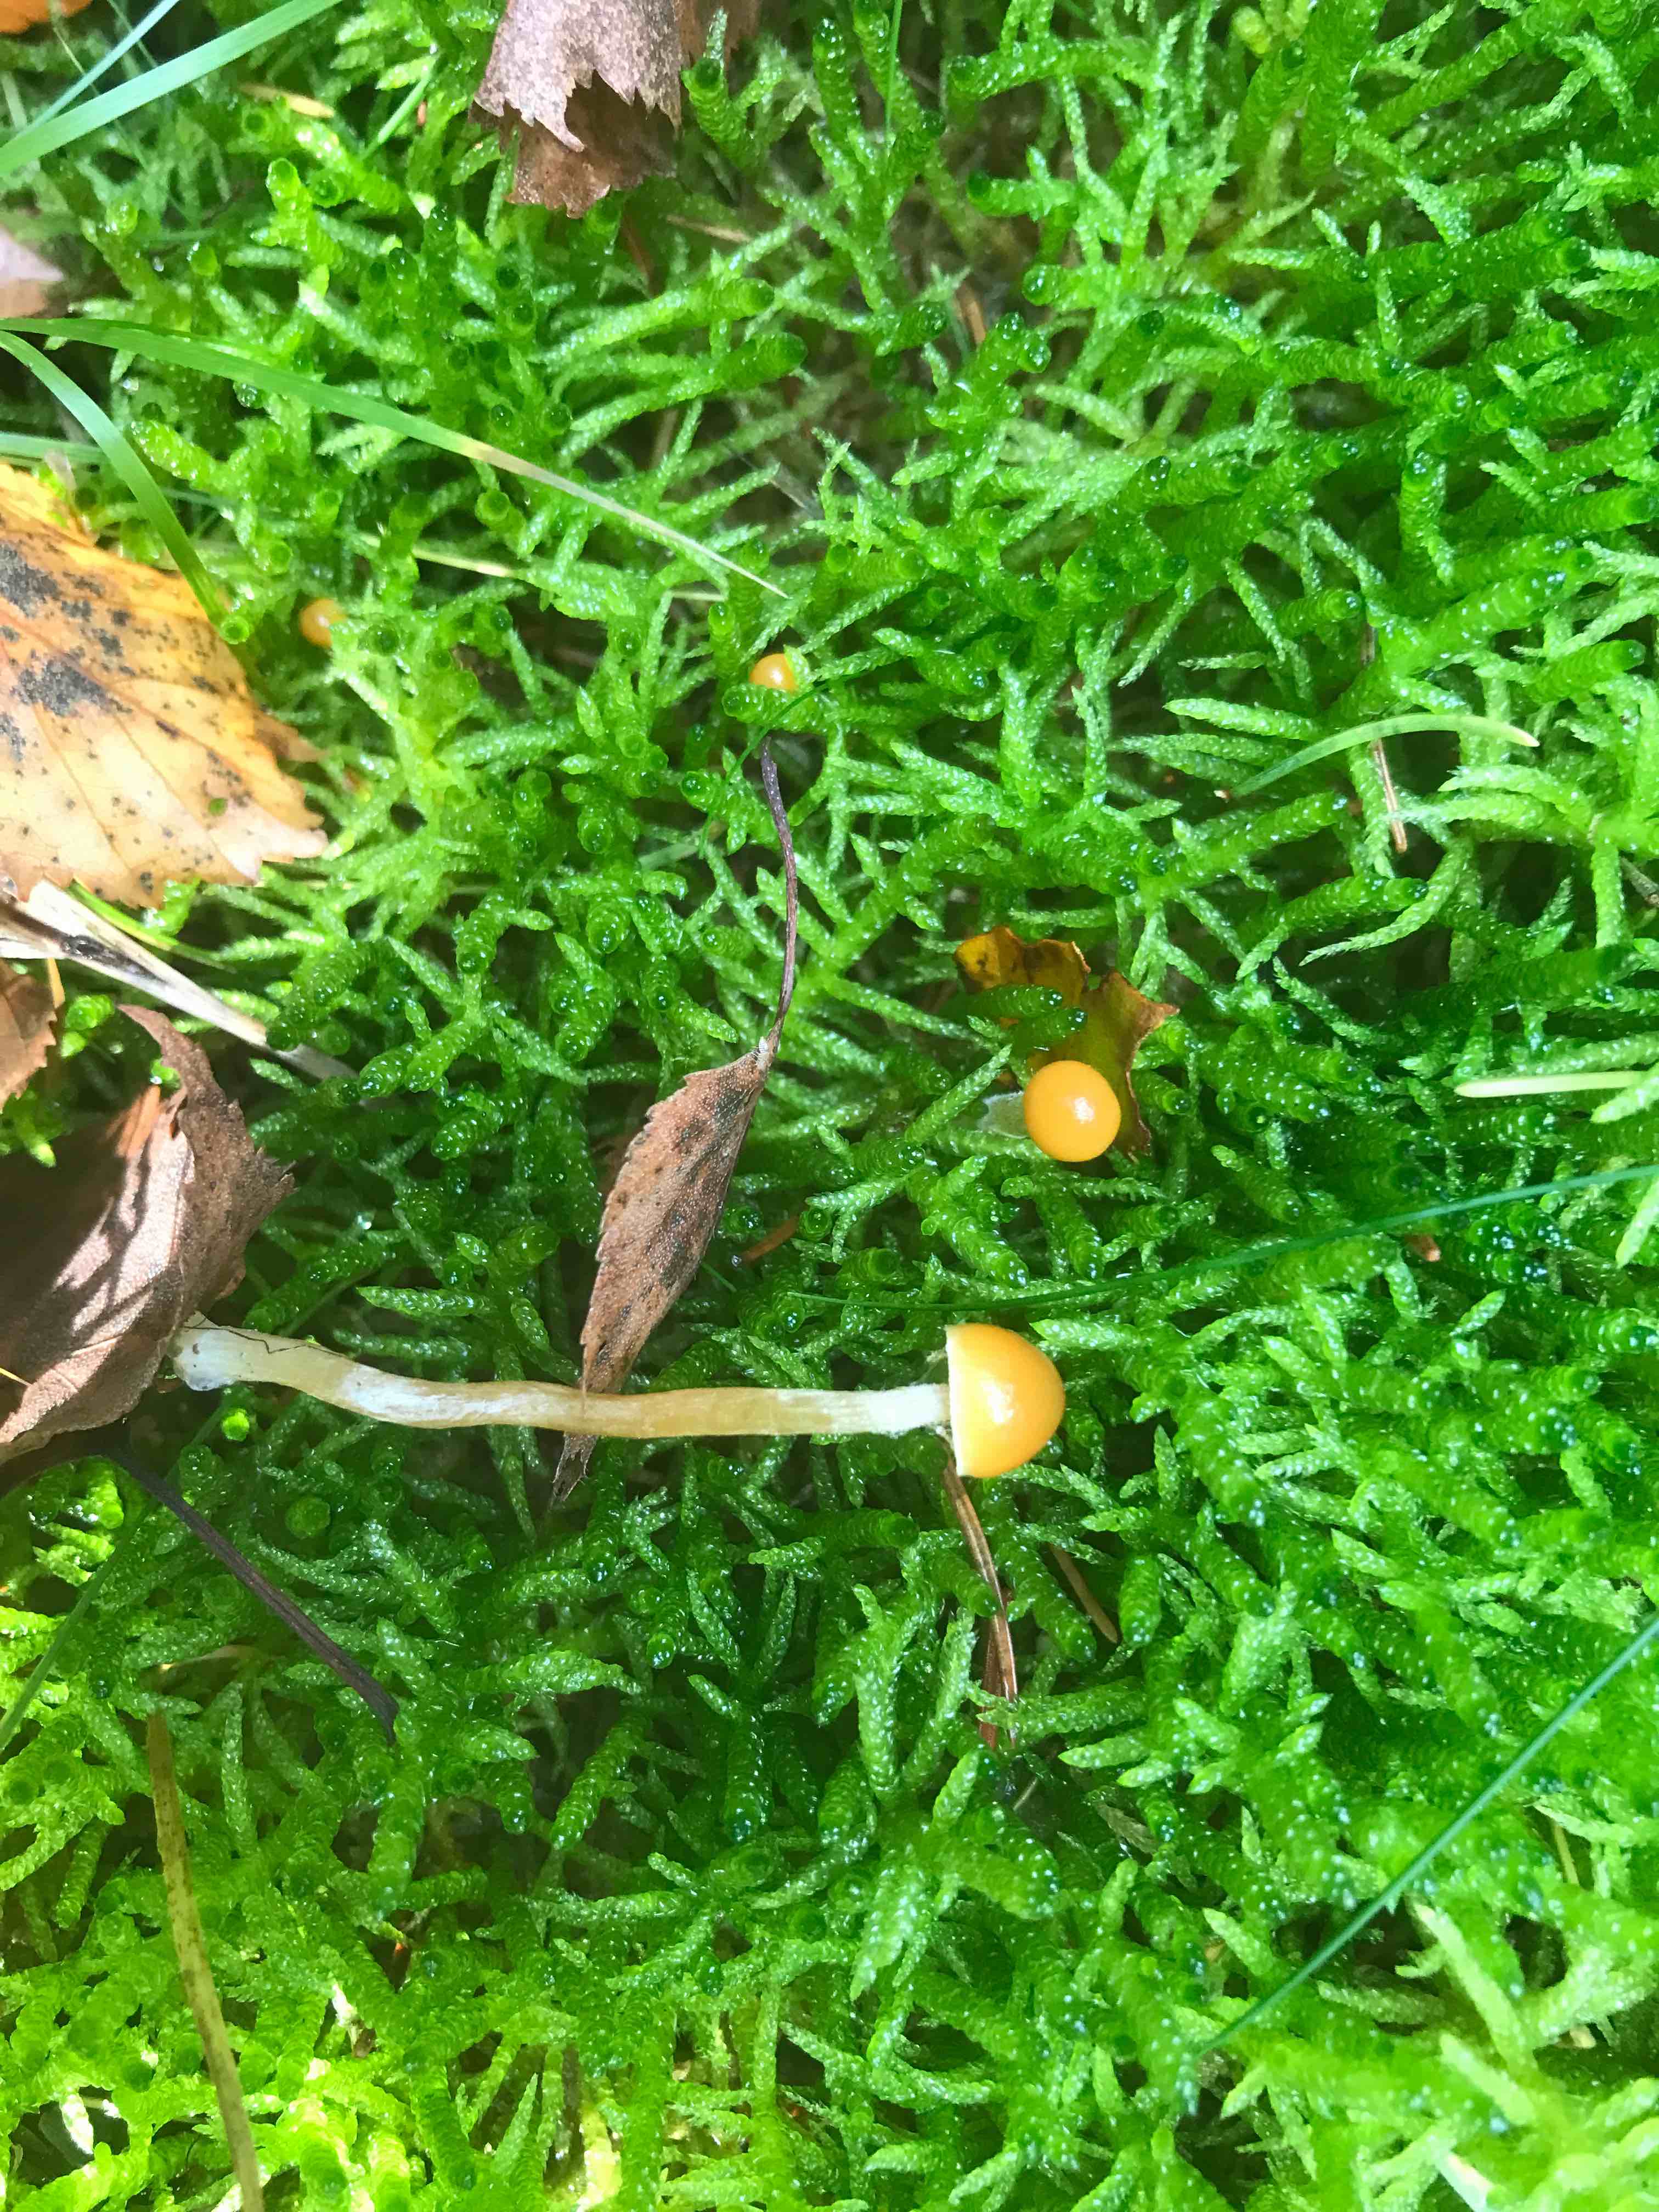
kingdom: Fungi
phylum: Basidiomycota
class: Agaricomycetes
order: Hymenochaetales
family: Rickenellaceae
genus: Rickenella
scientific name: Rickenella fibula
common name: orange mosnavlehat
